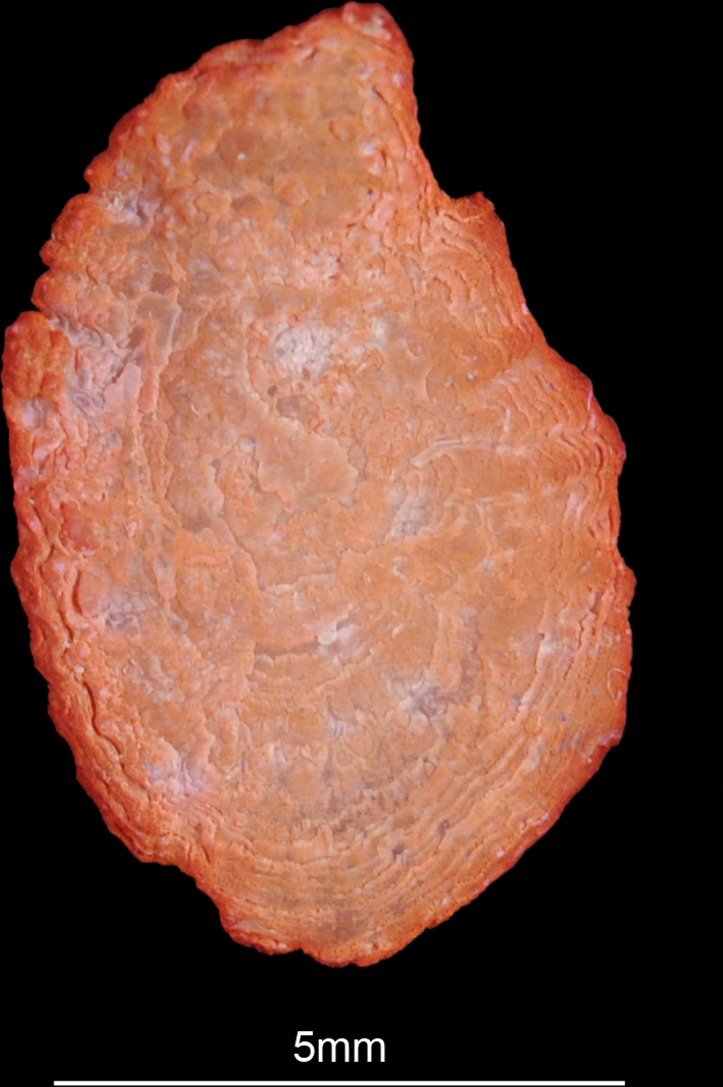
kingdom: Animalia
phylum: Chordata
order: Perciformes
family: Cichlidae
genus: Coptodon
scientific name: Coptodon rendalli
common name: Redbreast tilapia
